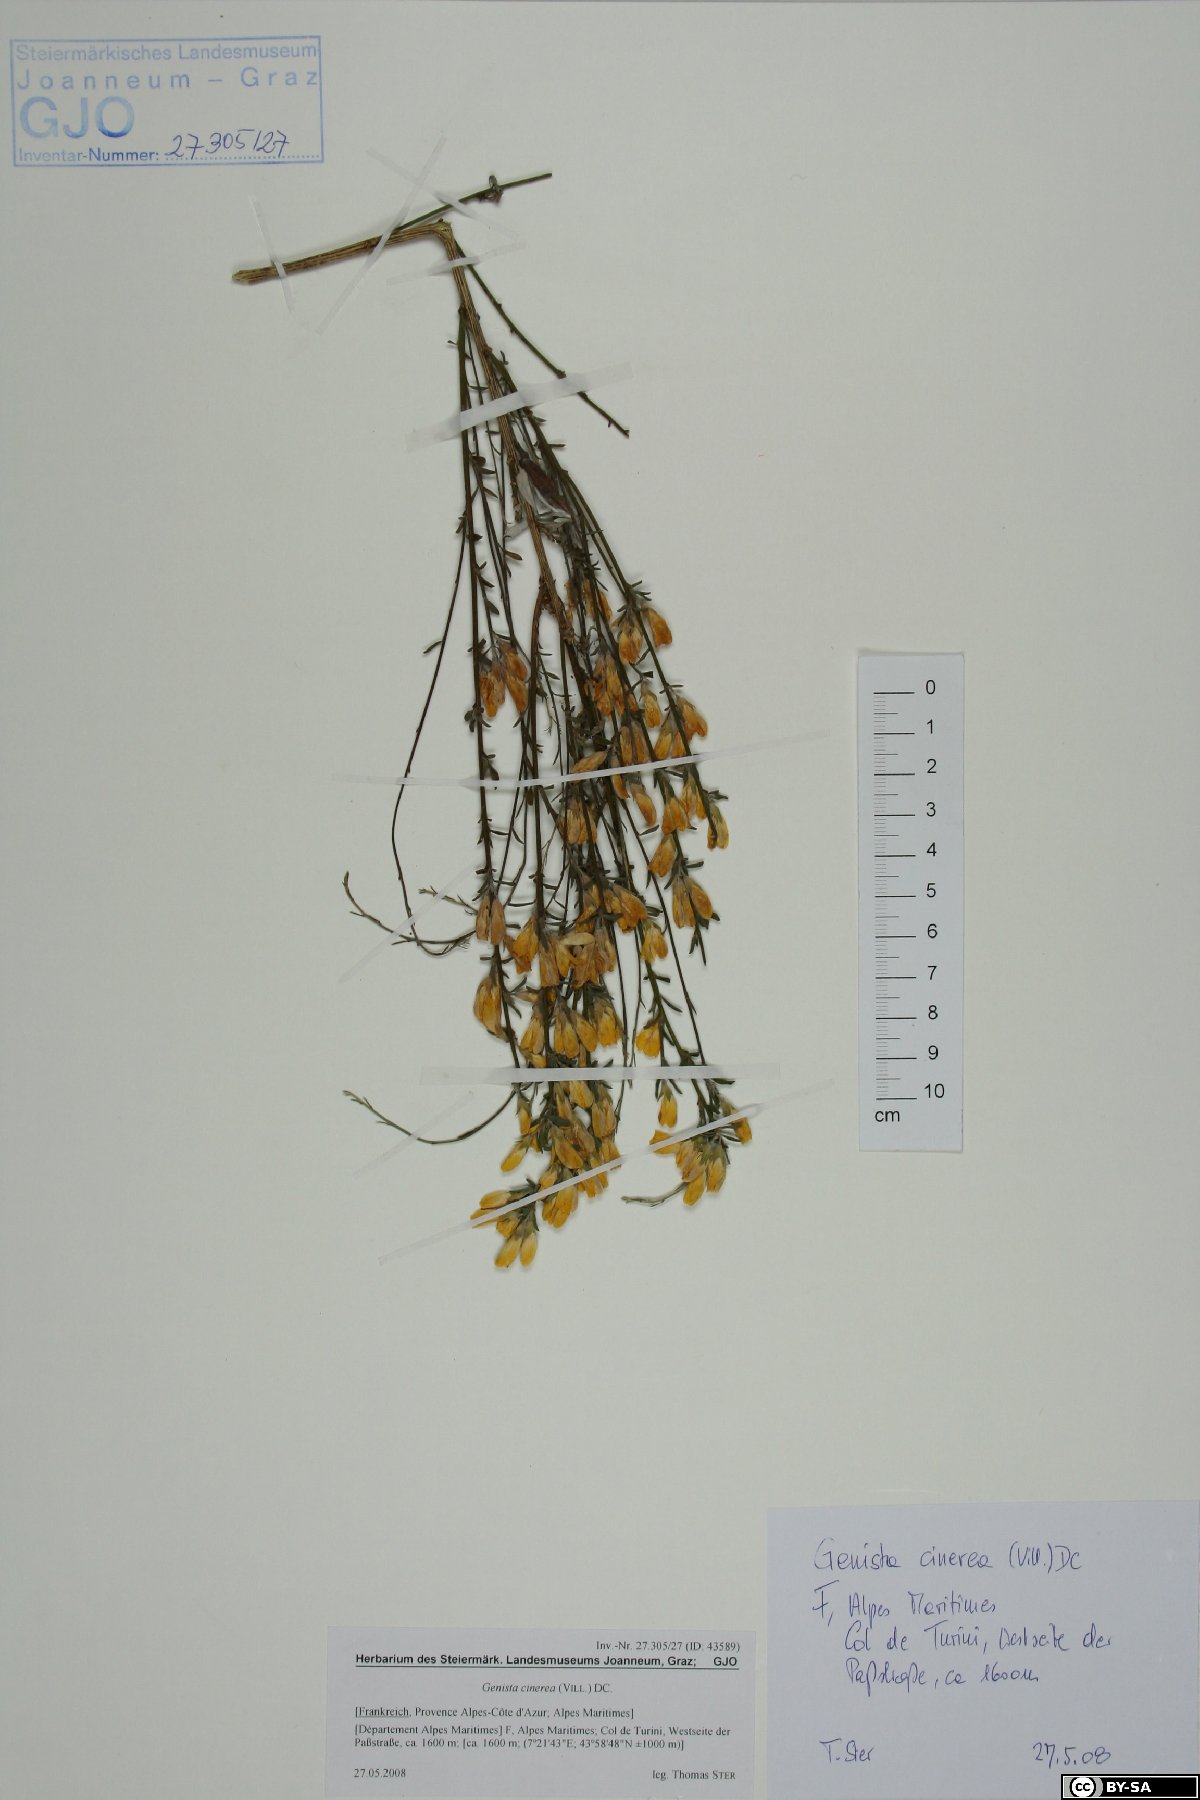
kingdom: Plantae
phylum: Tracheophyta
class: Magnoliopsida
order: Fabales
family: Fabaceae
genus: Genista
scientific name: Genista cinerea
